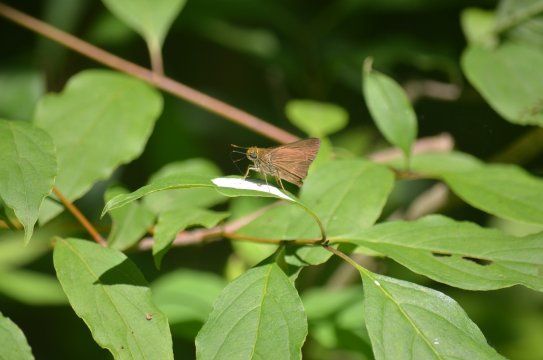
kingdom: Animalia
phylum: Arthropoda
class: Insecta
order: Lepidoptera
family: Hesperiidae
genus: Euphyes
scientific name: Euphyes vestris
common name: Dun Skipper
